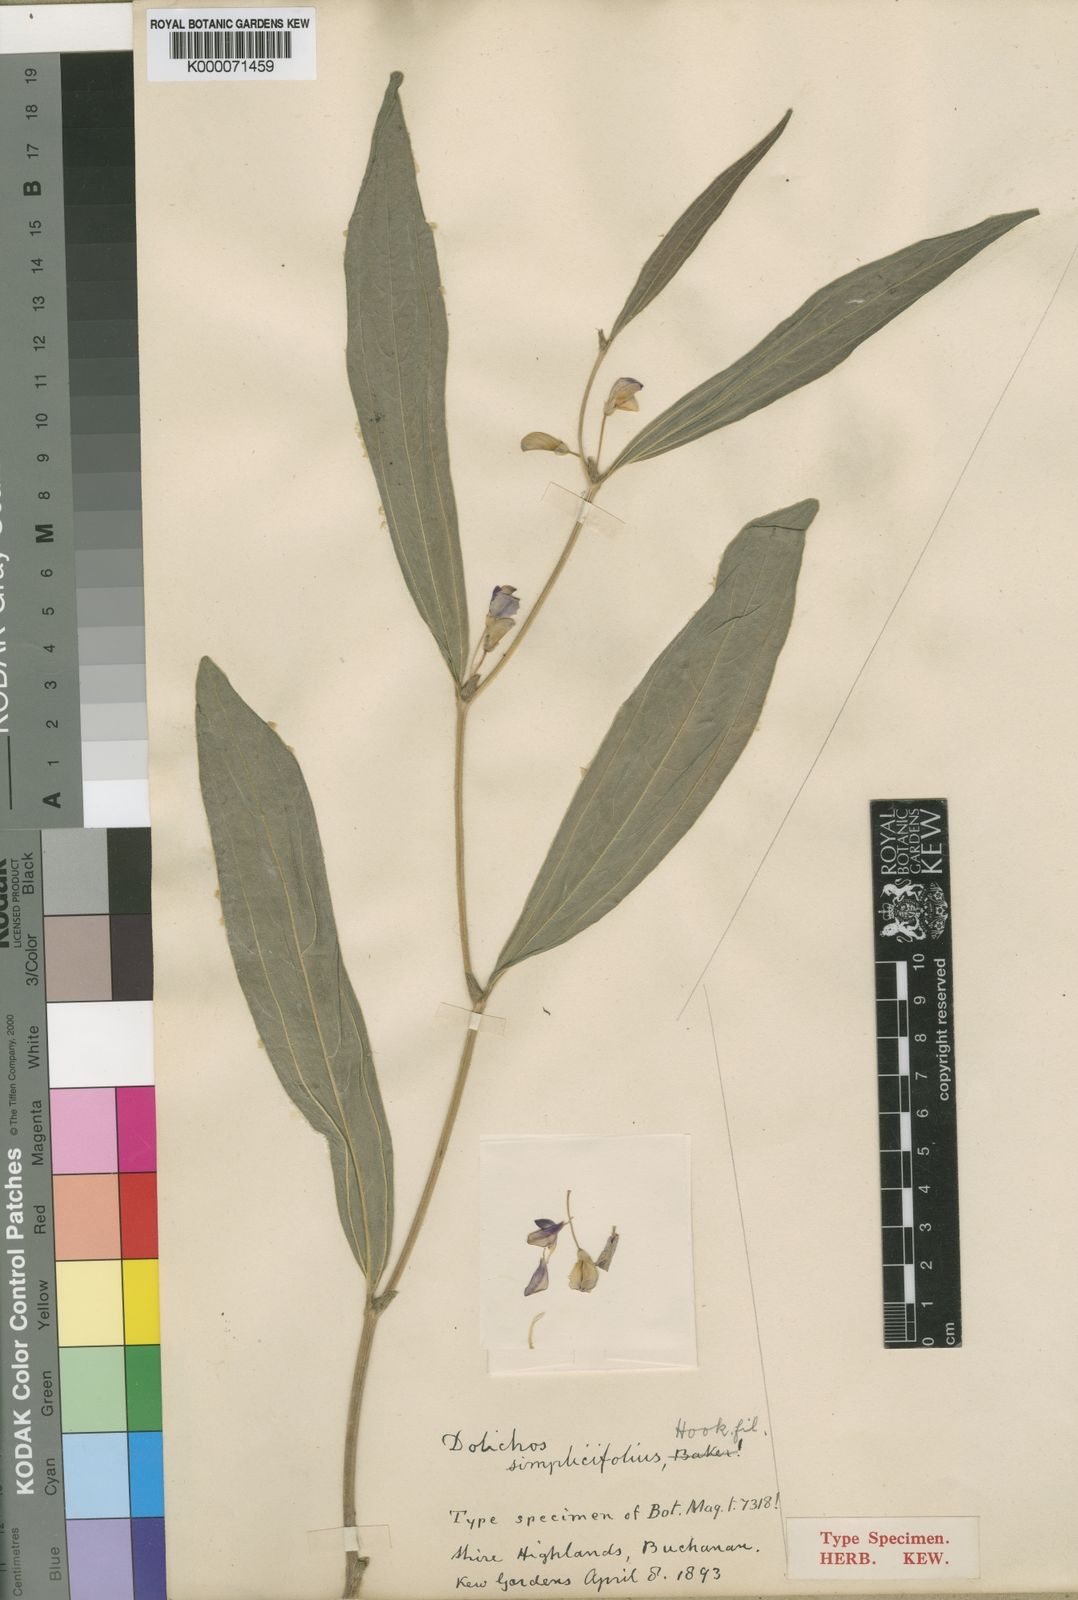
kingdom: Plantae
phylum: Tracheophyta
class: Magnoliopsida
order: Fabales
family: Fabaceae
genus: Dolichos
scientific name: Dolichos simplicifolius
